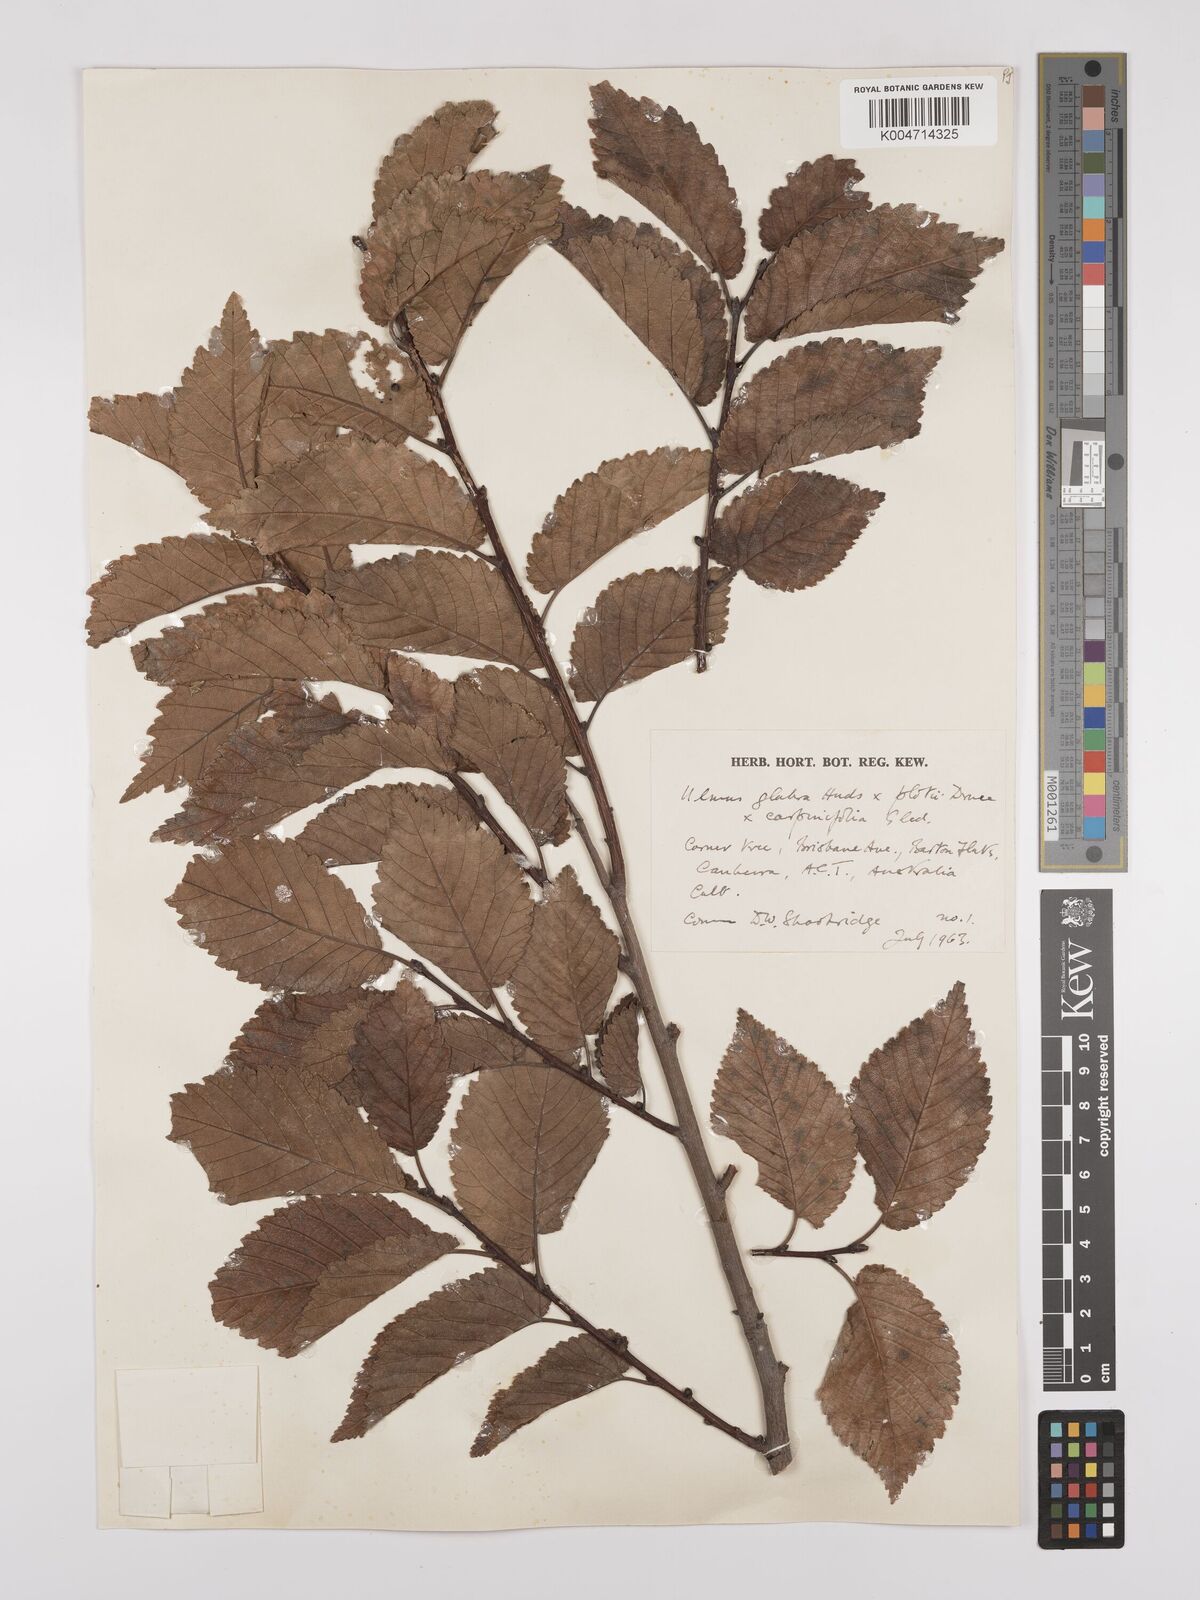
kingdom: Plantae
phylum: Tracheophyta
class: Magnoliopsida
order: Rosales
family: Ulmaceae
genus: Ulmus
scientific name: Ulmus
